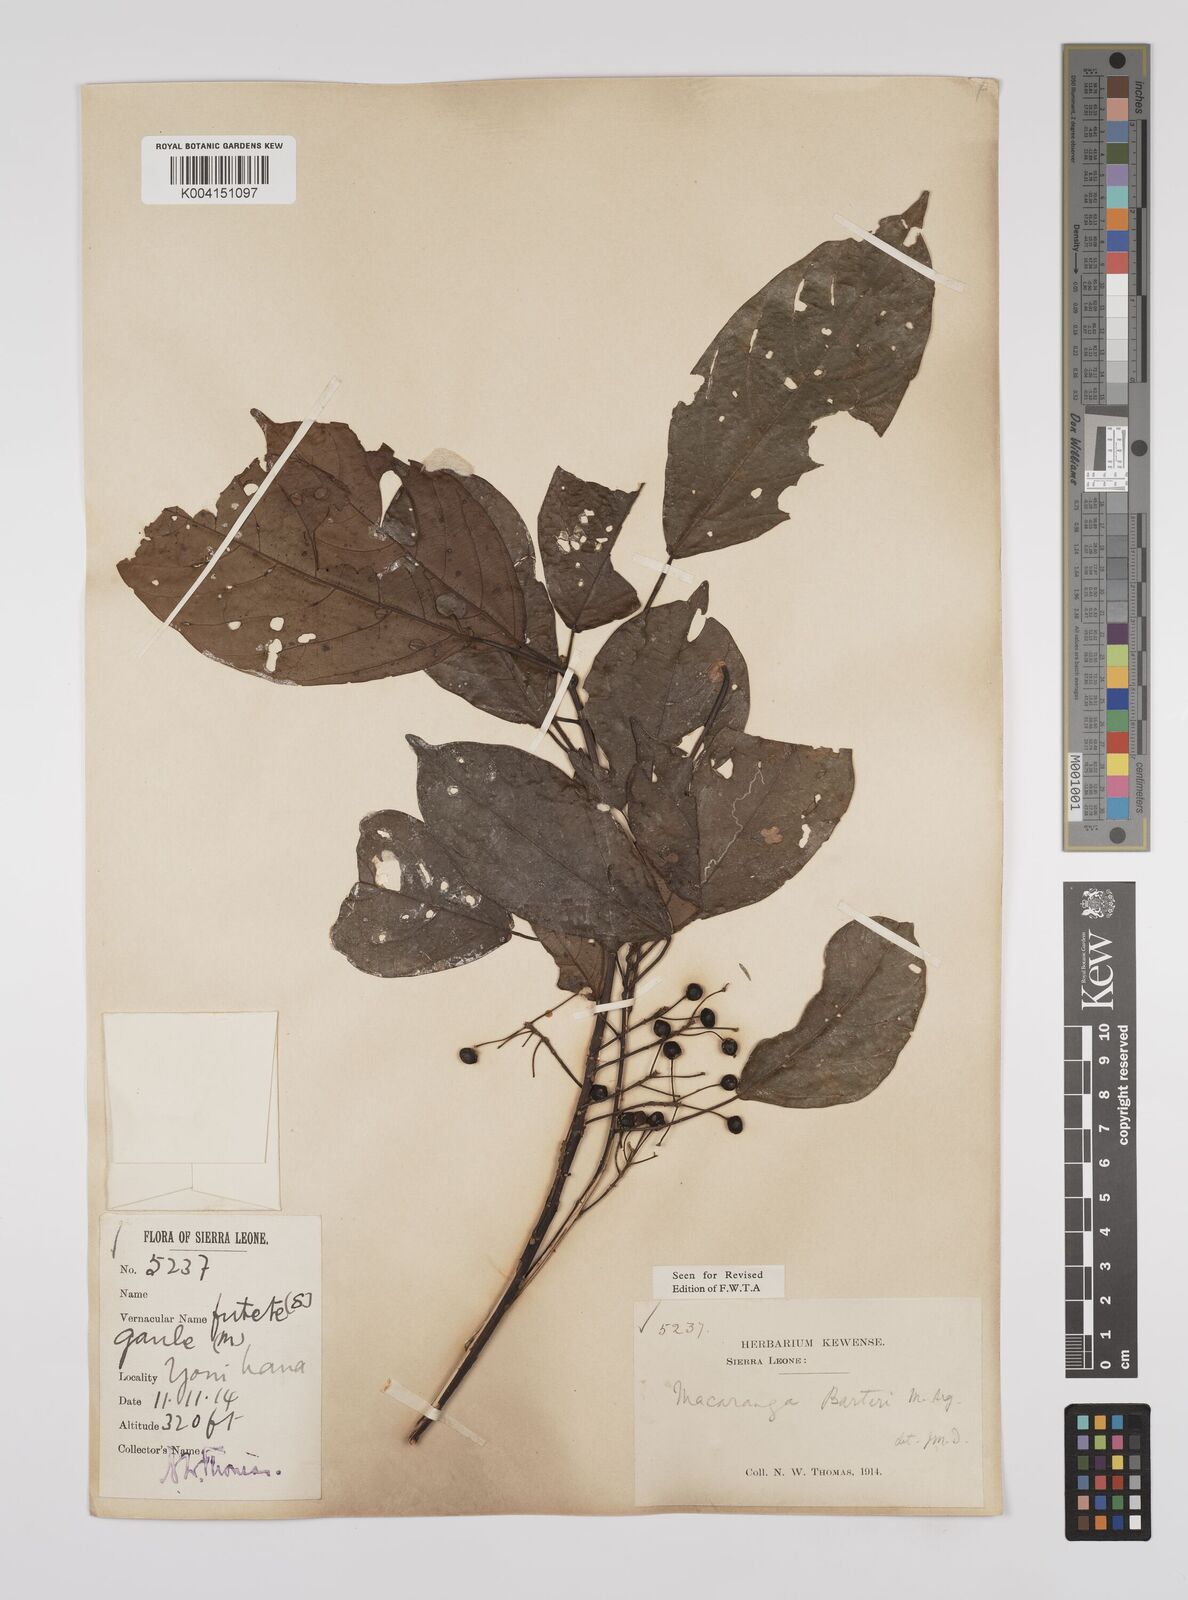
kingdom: Plantae
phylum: Tracheophyta
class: Magnoliopsida
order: Malpighiales
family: Euphorbiaceae
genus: Macaranga
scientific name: Macaranga barteri
